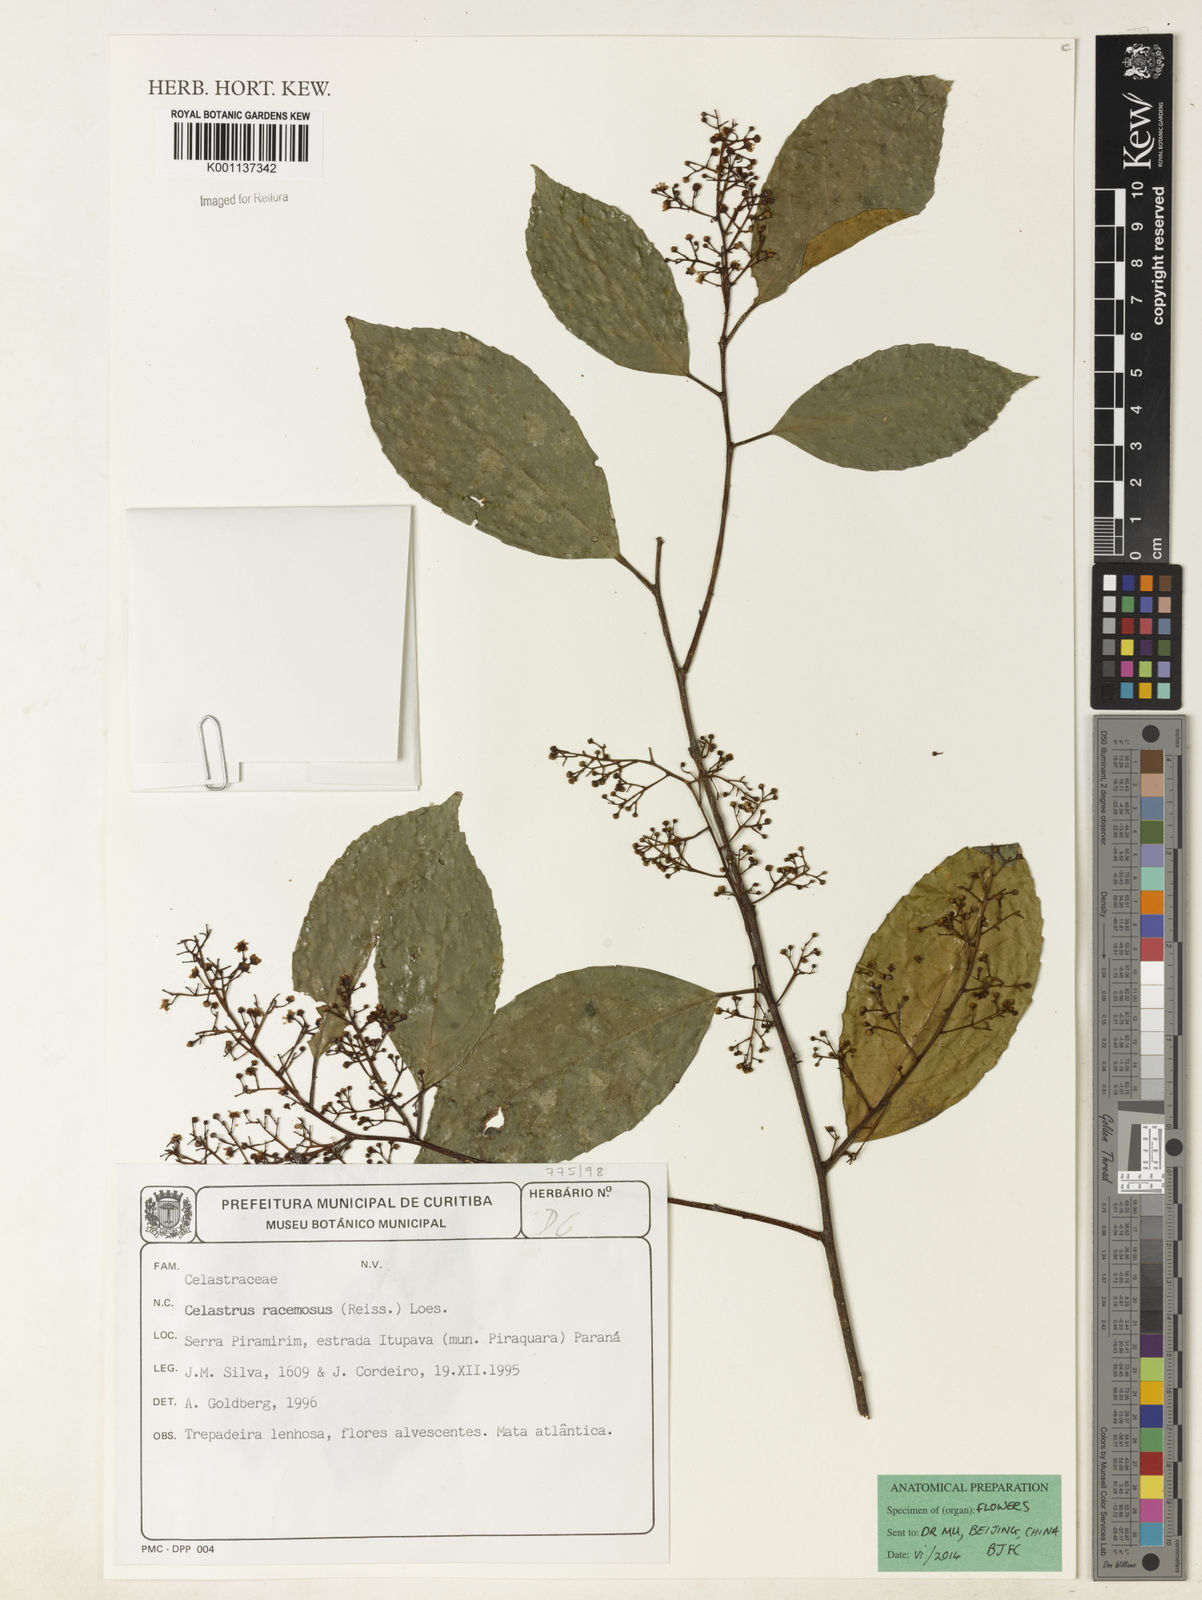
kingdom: Plantae
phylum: Tracheophyta
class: Magnoliopsida
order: Celastrales
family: Celastraceae
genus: Celastrus
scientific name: Celastrus
